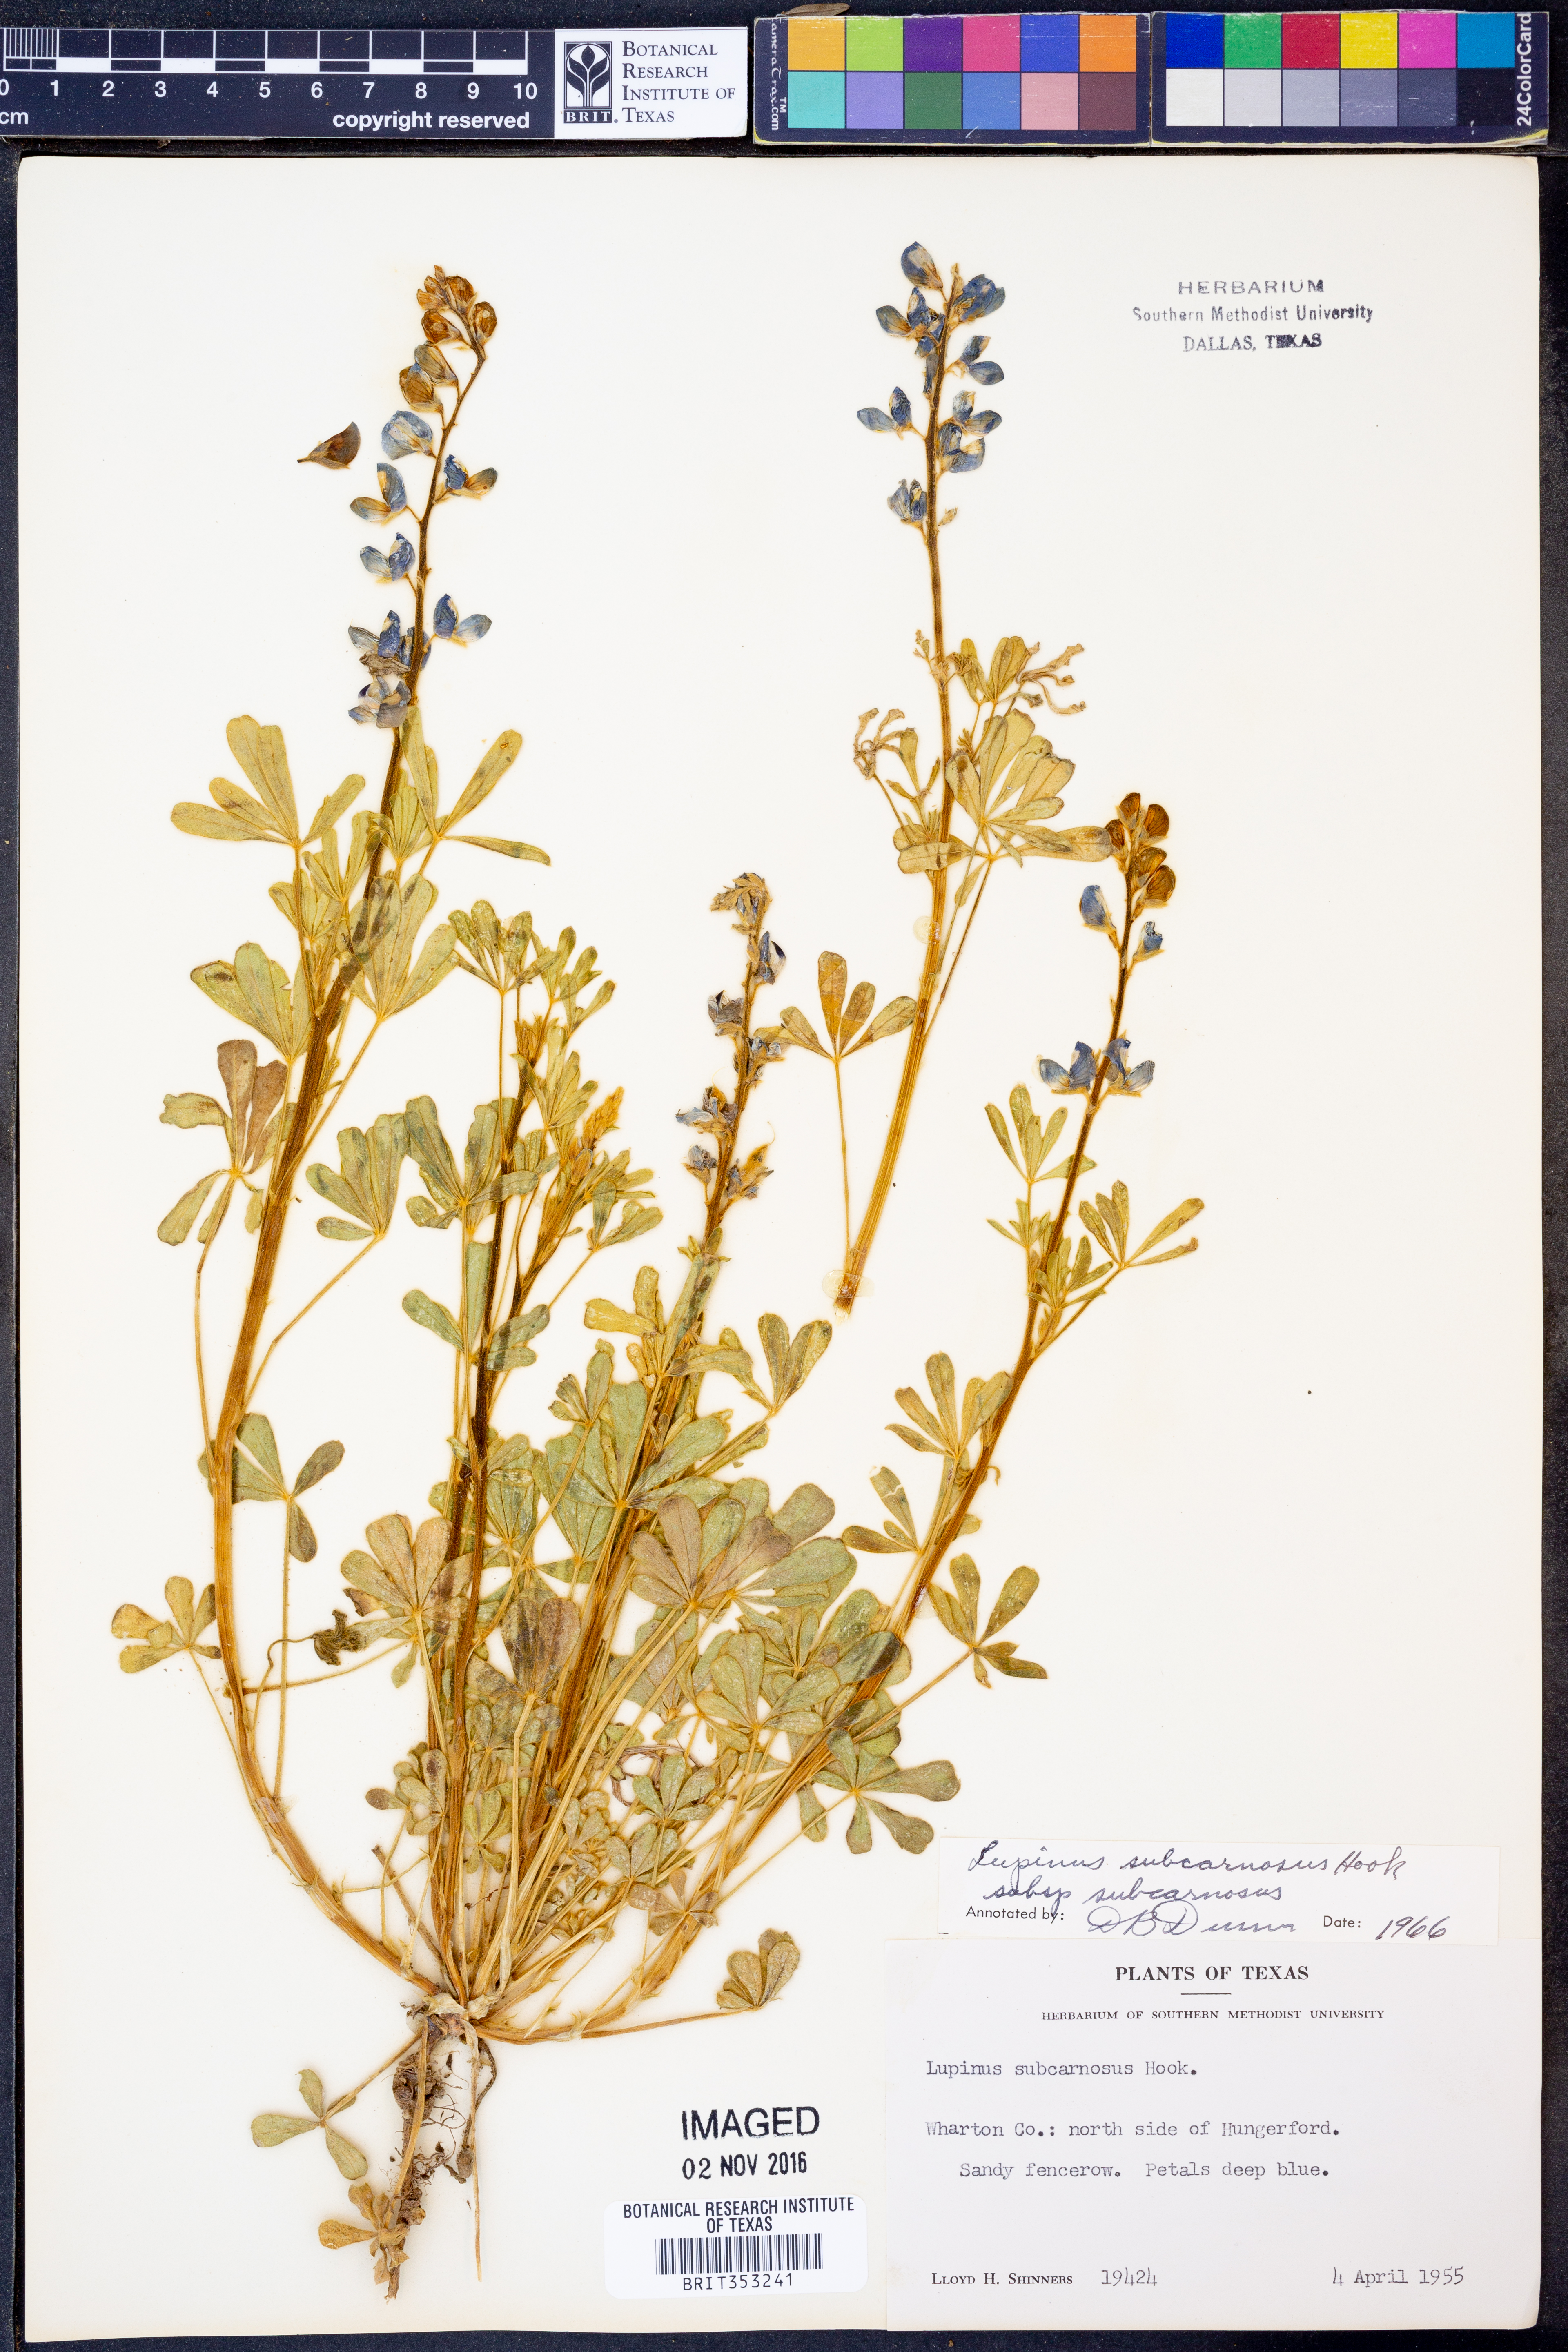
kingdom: Plantae
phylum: Tracheophyta
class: Magnoliopsida
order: Fabales
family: Fabaceae
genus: Lupinus
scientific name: Lupinus subcarnosus
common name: Texas bluebonnet
